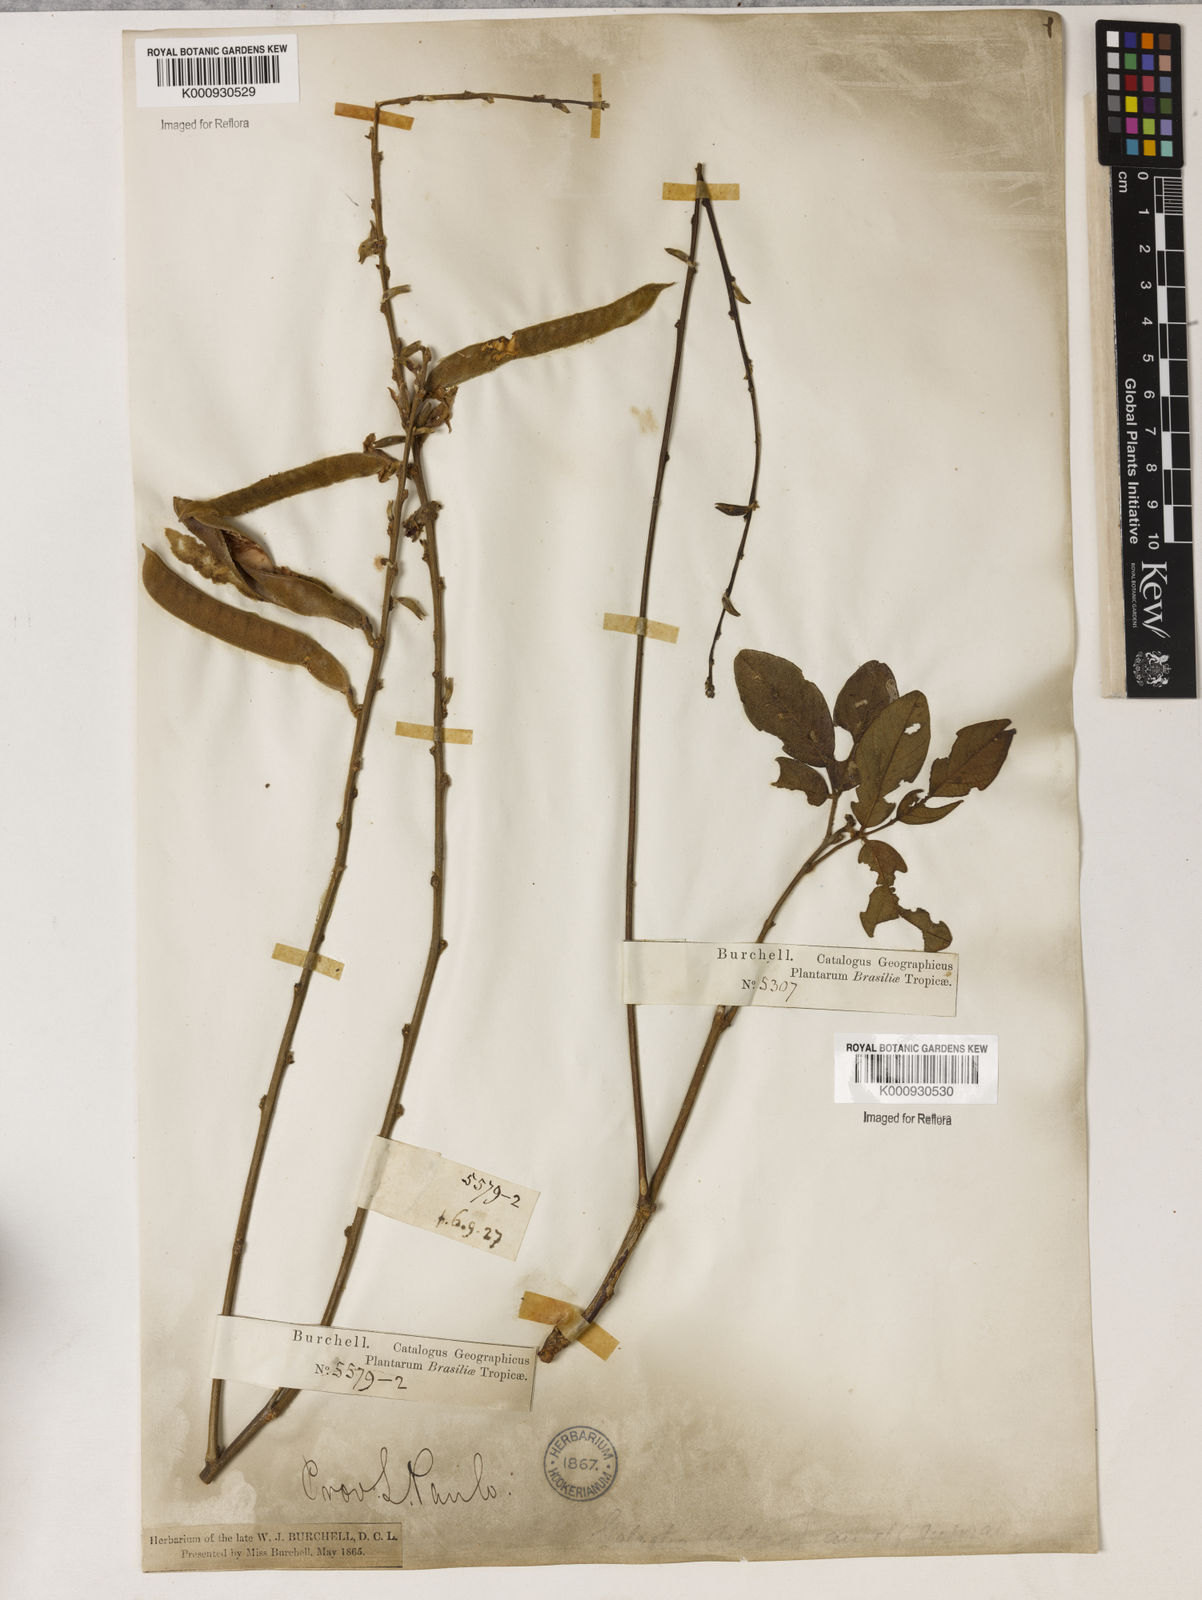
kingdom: Plantae
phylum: Tracheophyta
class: Magnoliopsida
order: Fabales
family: Fabaceae
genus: Galactia
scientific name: Galactia
